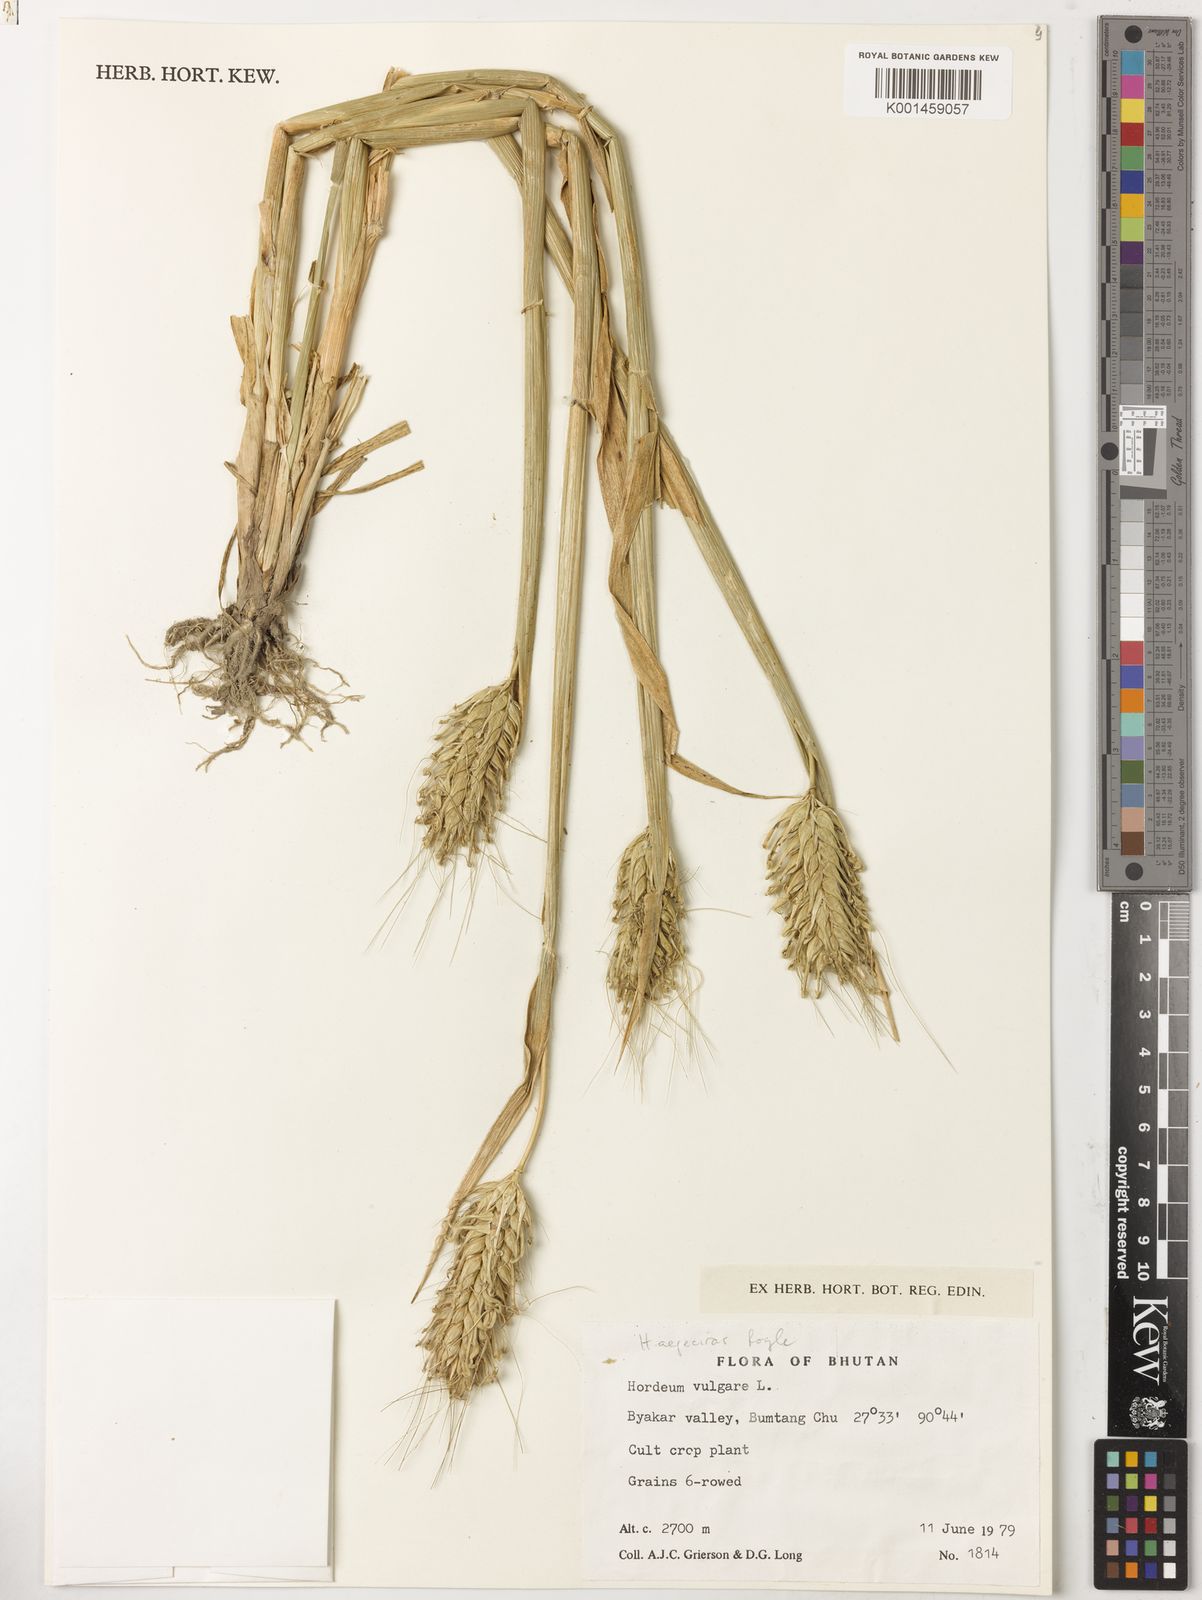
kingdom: Plantae
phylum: Tracheophyta
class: Liliopsida
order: Poales
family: Poaceae
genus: Hordeum
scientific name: Hordeum vulgare
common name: Common barley
